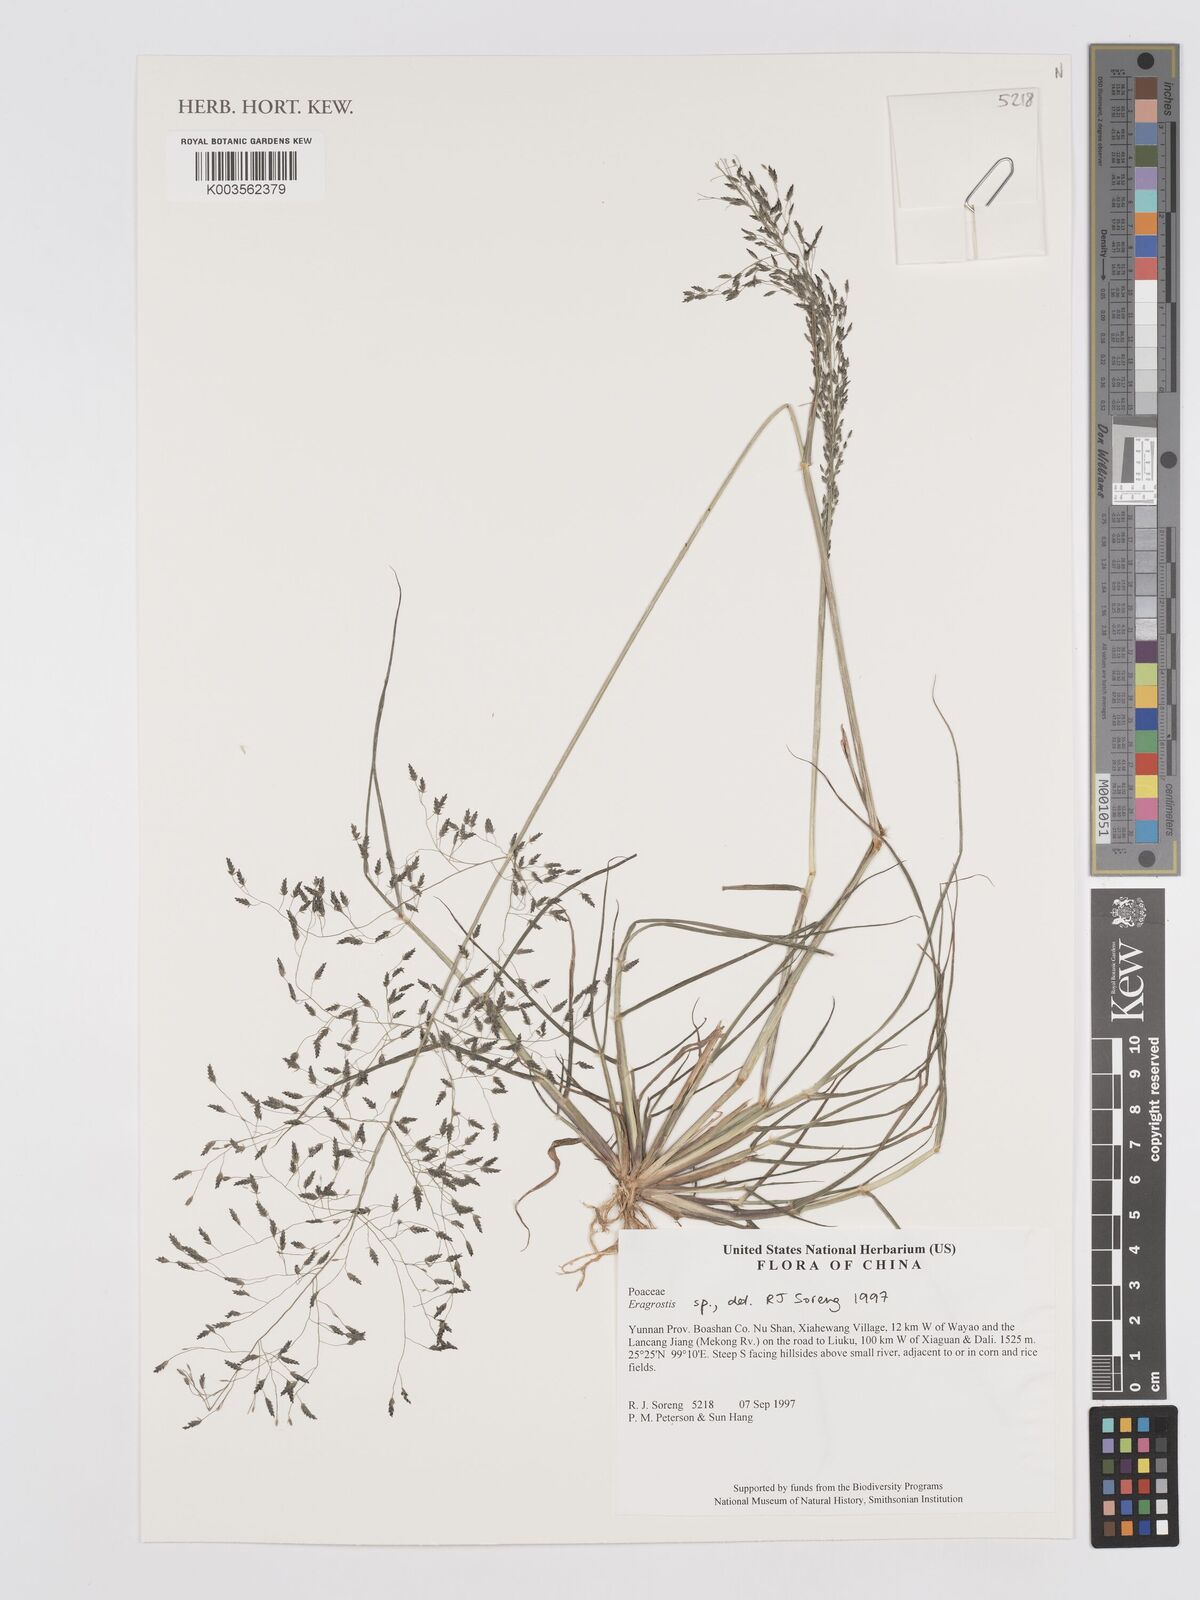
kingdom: Plantae
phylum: Tracheophyta
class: Liliopsida
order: Poales
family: Poaceae
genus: Eragrostis
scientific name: Eragrostis
